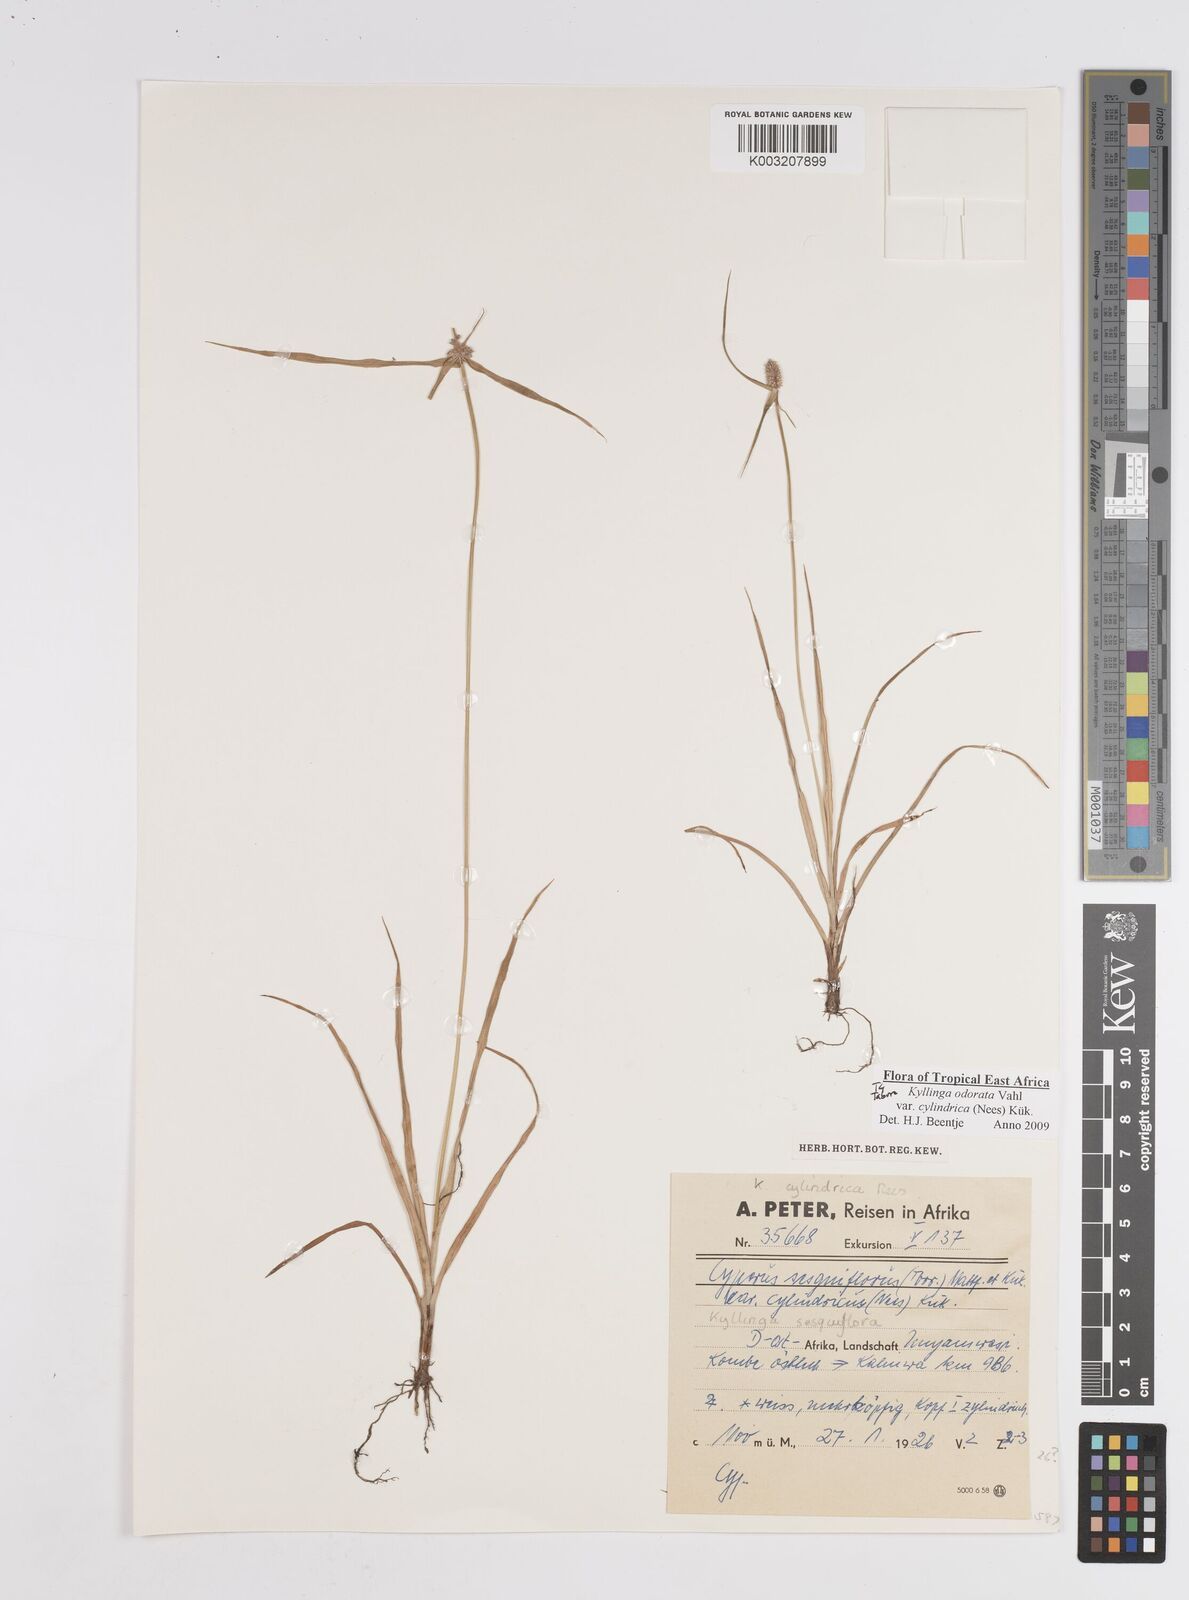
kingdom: Plantae
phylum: Tracheophyta
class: Liliopsida
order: Poales
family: Cyperaceae
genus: Cyperus
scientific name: Cyperus
